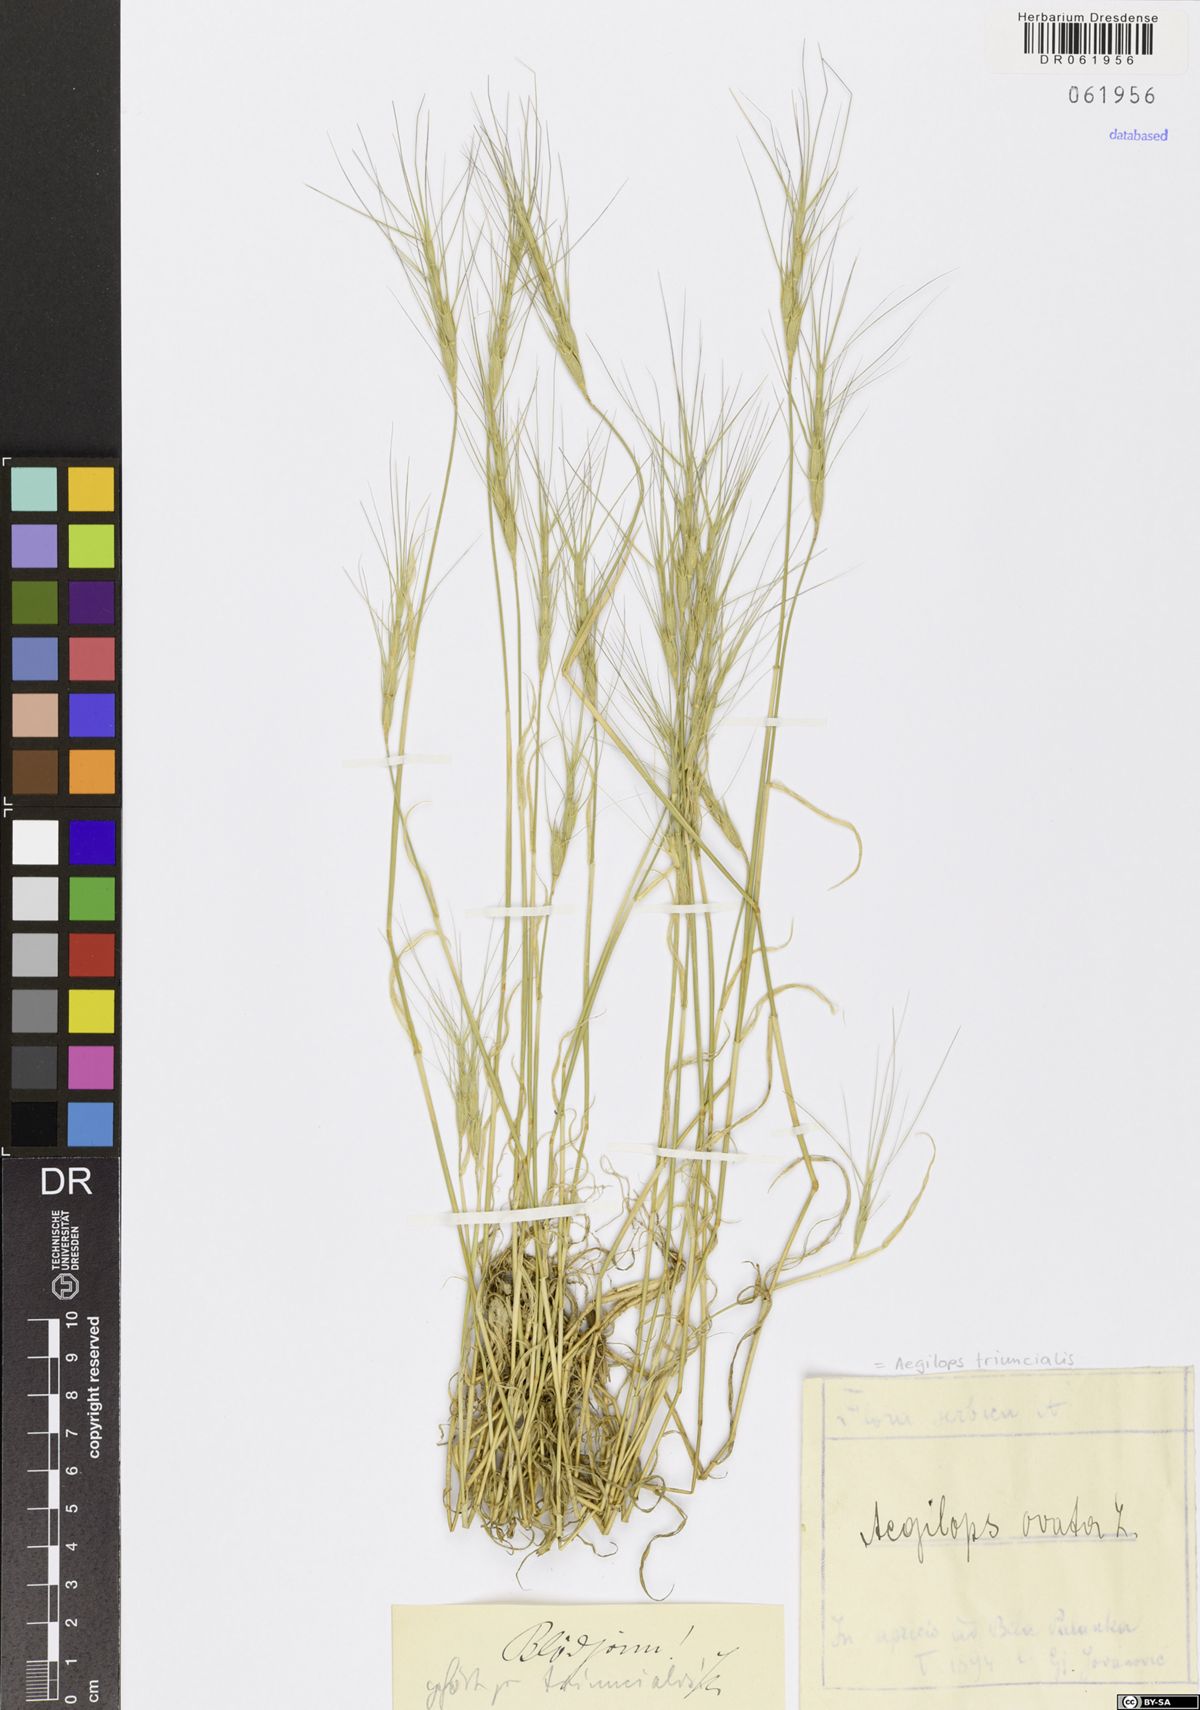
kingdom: Plantae
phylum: Tracheophyta
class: Liliopsida
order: Poales
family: Poaceae
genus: Aegilops
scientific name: Aegilops triuncialis
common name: Barb goat grass
